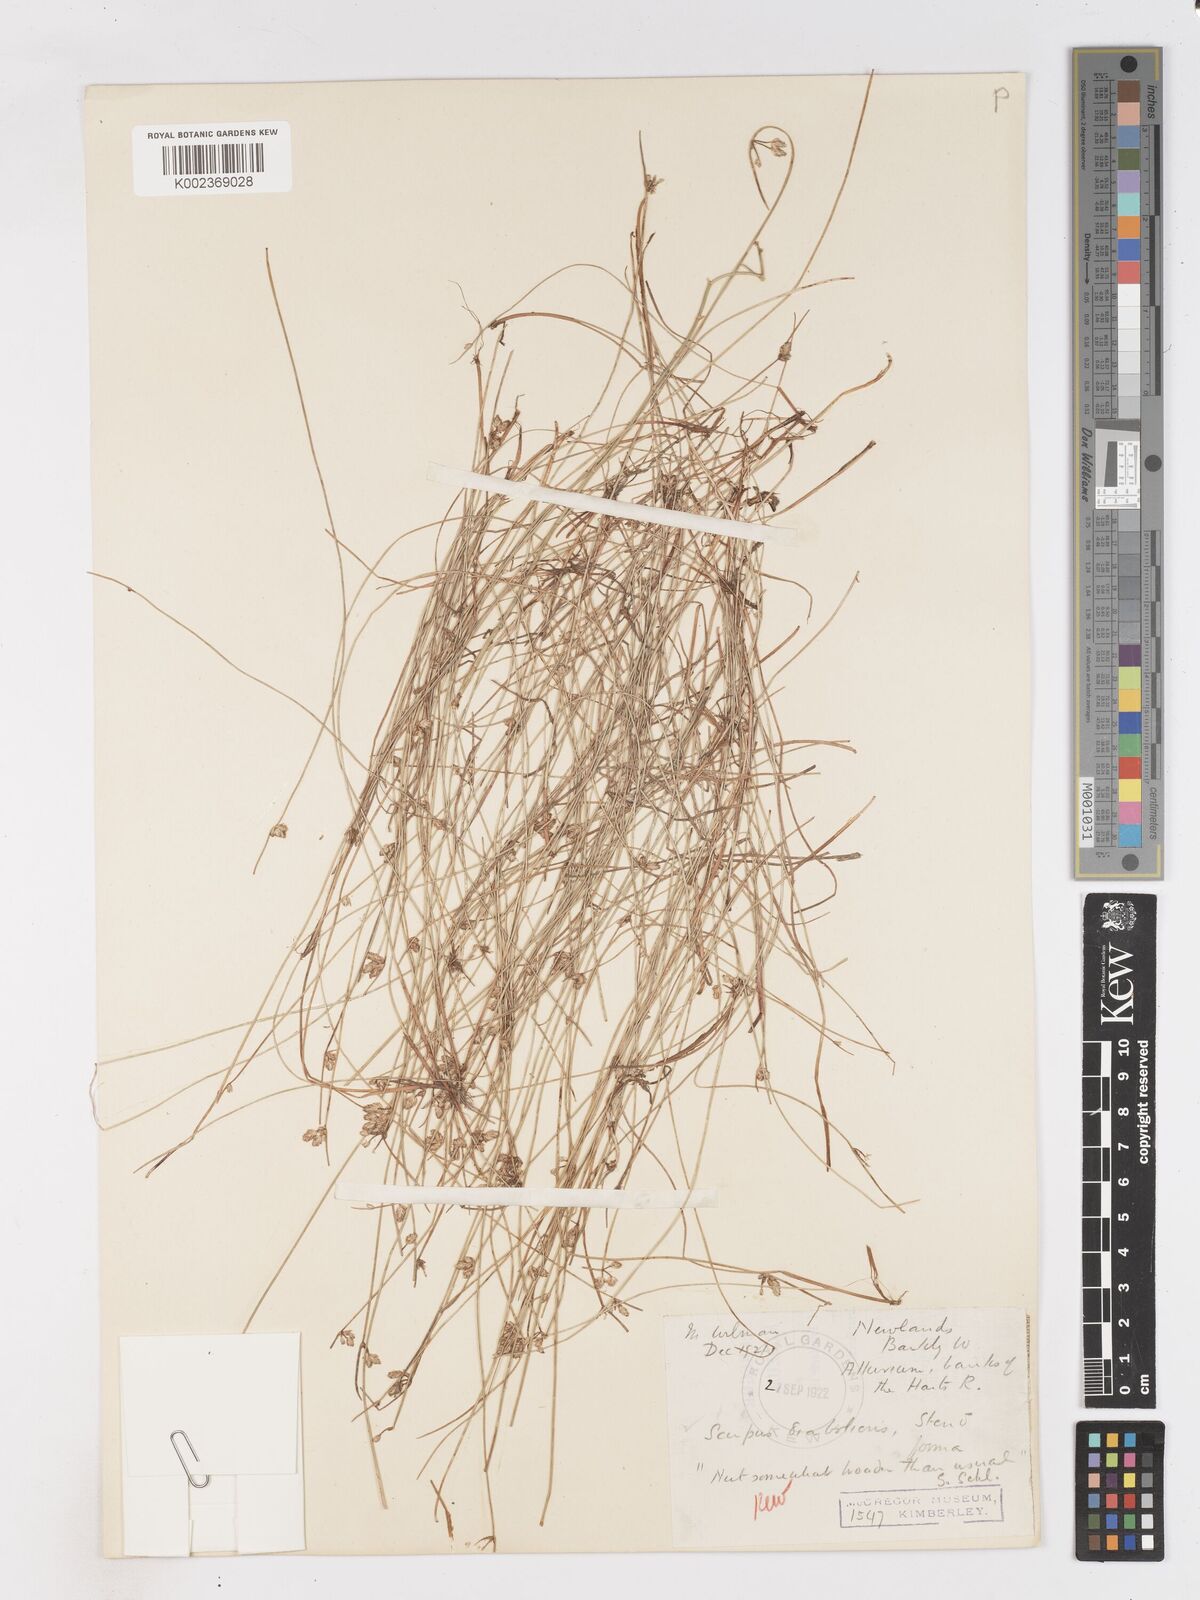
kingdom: Plantae
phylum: Tracheophyta
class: Liliopsida
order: Poales
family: Cyperaceae
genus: Isolepis
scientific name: Isolepis diabolica
